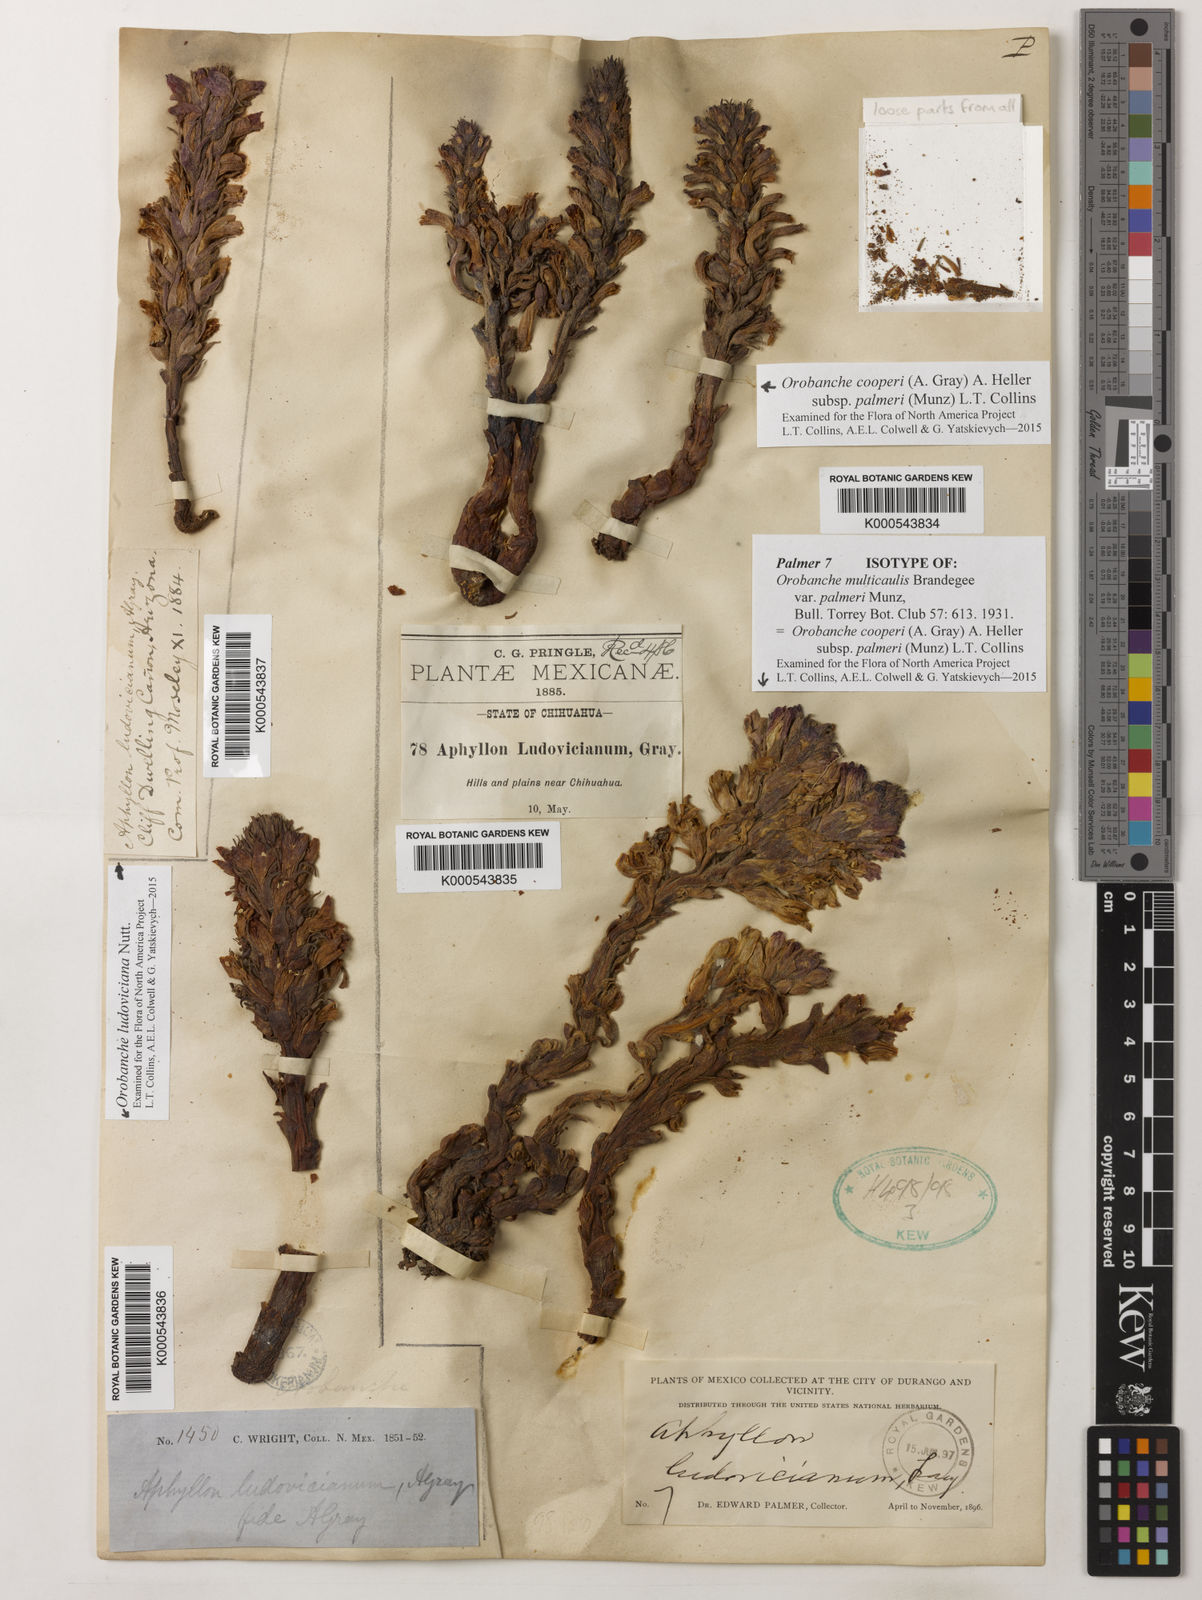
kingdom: Plantae
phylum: Tracheophyta
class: Magnoliopsida
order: Lamiales
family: Orobanchaceae
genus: Aphyllon
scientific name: Aphyllon cooperi
